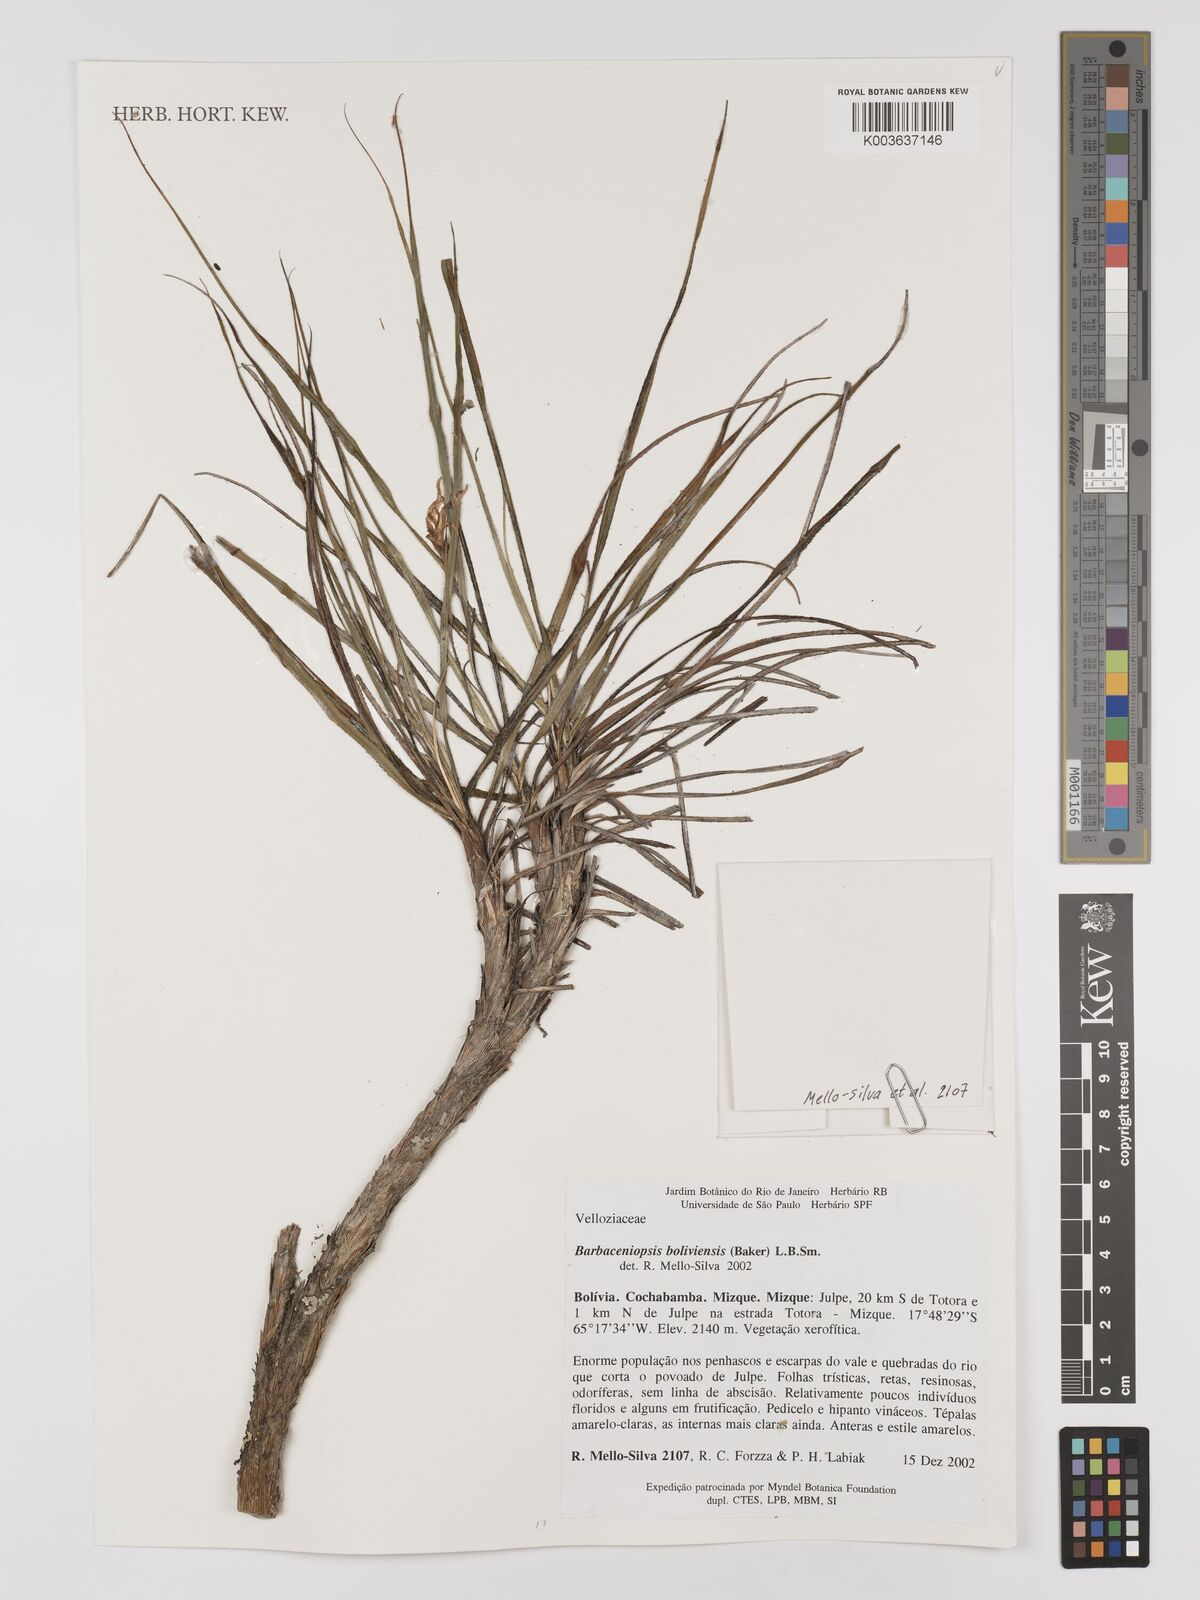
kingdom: Plantae
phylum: Tracheophyta
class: Liliopsida
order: Pandanales
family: Velloziaceae
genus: Barbaceniopsis
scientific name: Barbaceniopsis boliviensis
